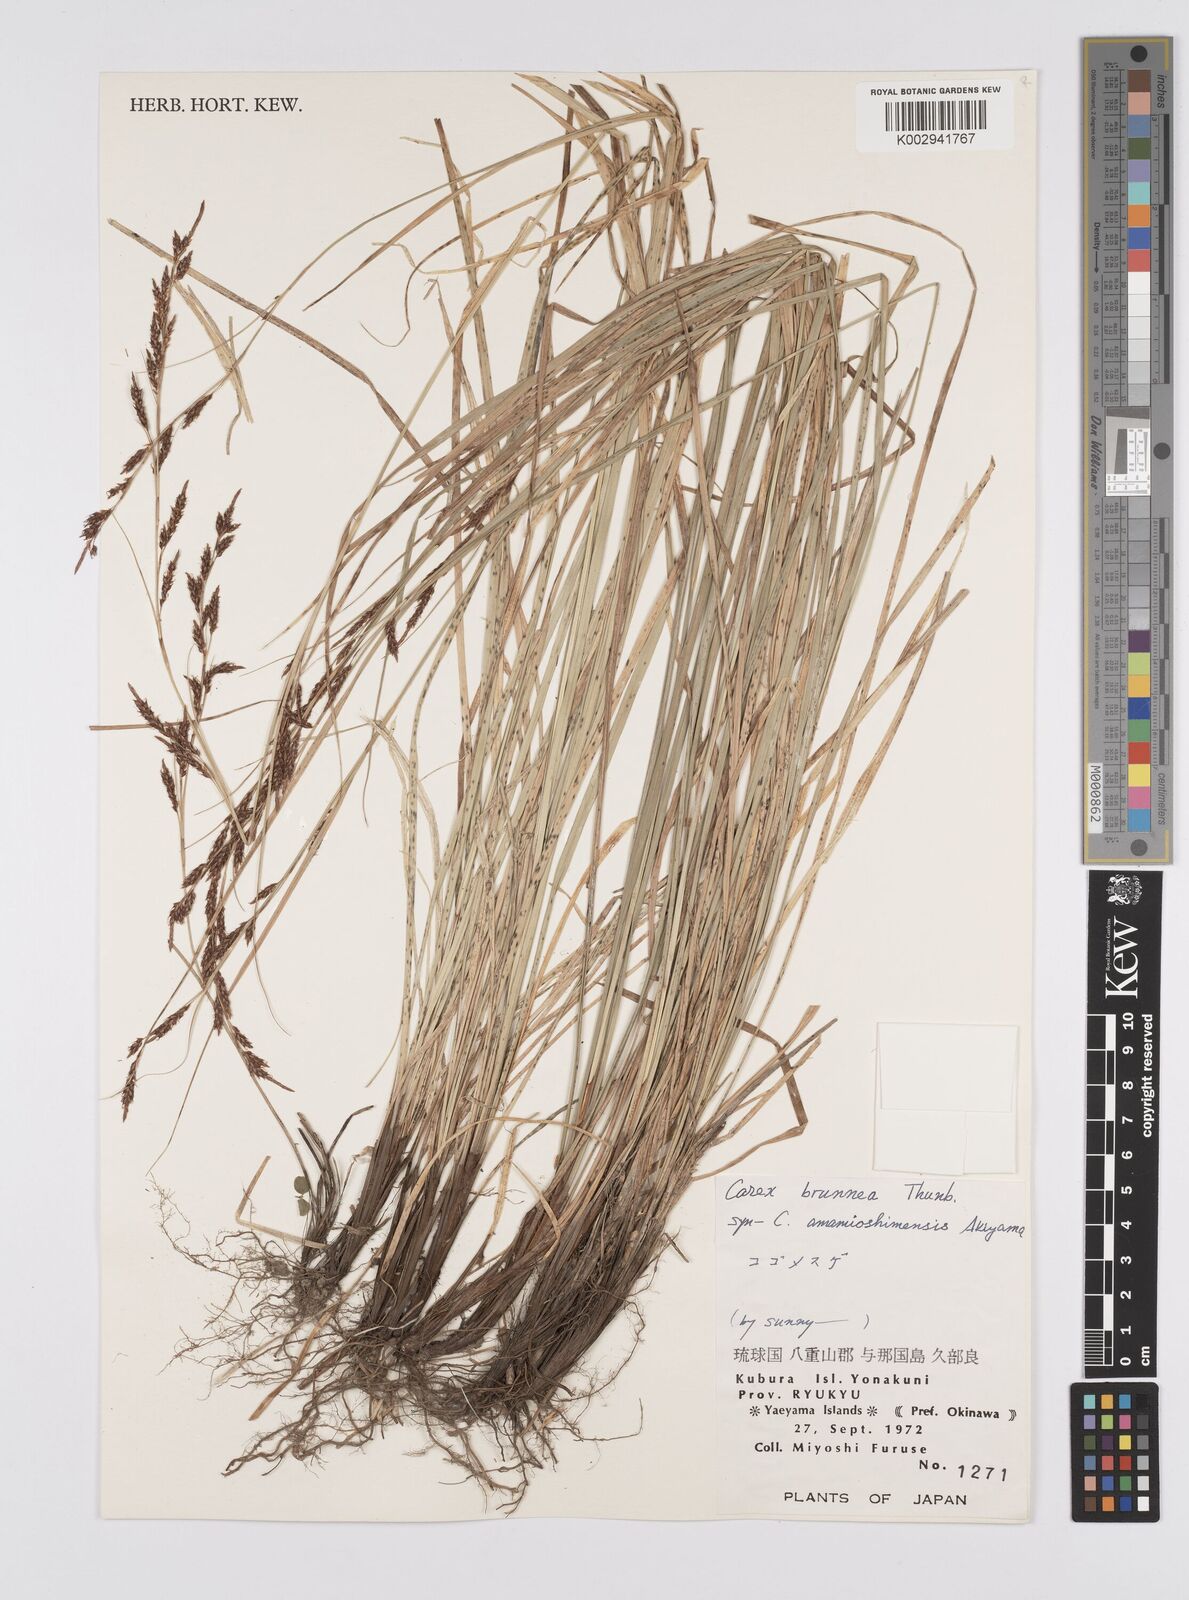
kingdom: Plantae
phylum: Tracheophyta
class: Liliopsida
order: Poales
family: Cyperaceae
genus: Carex
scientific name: Carex brunnea
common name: Greater brown sedge
